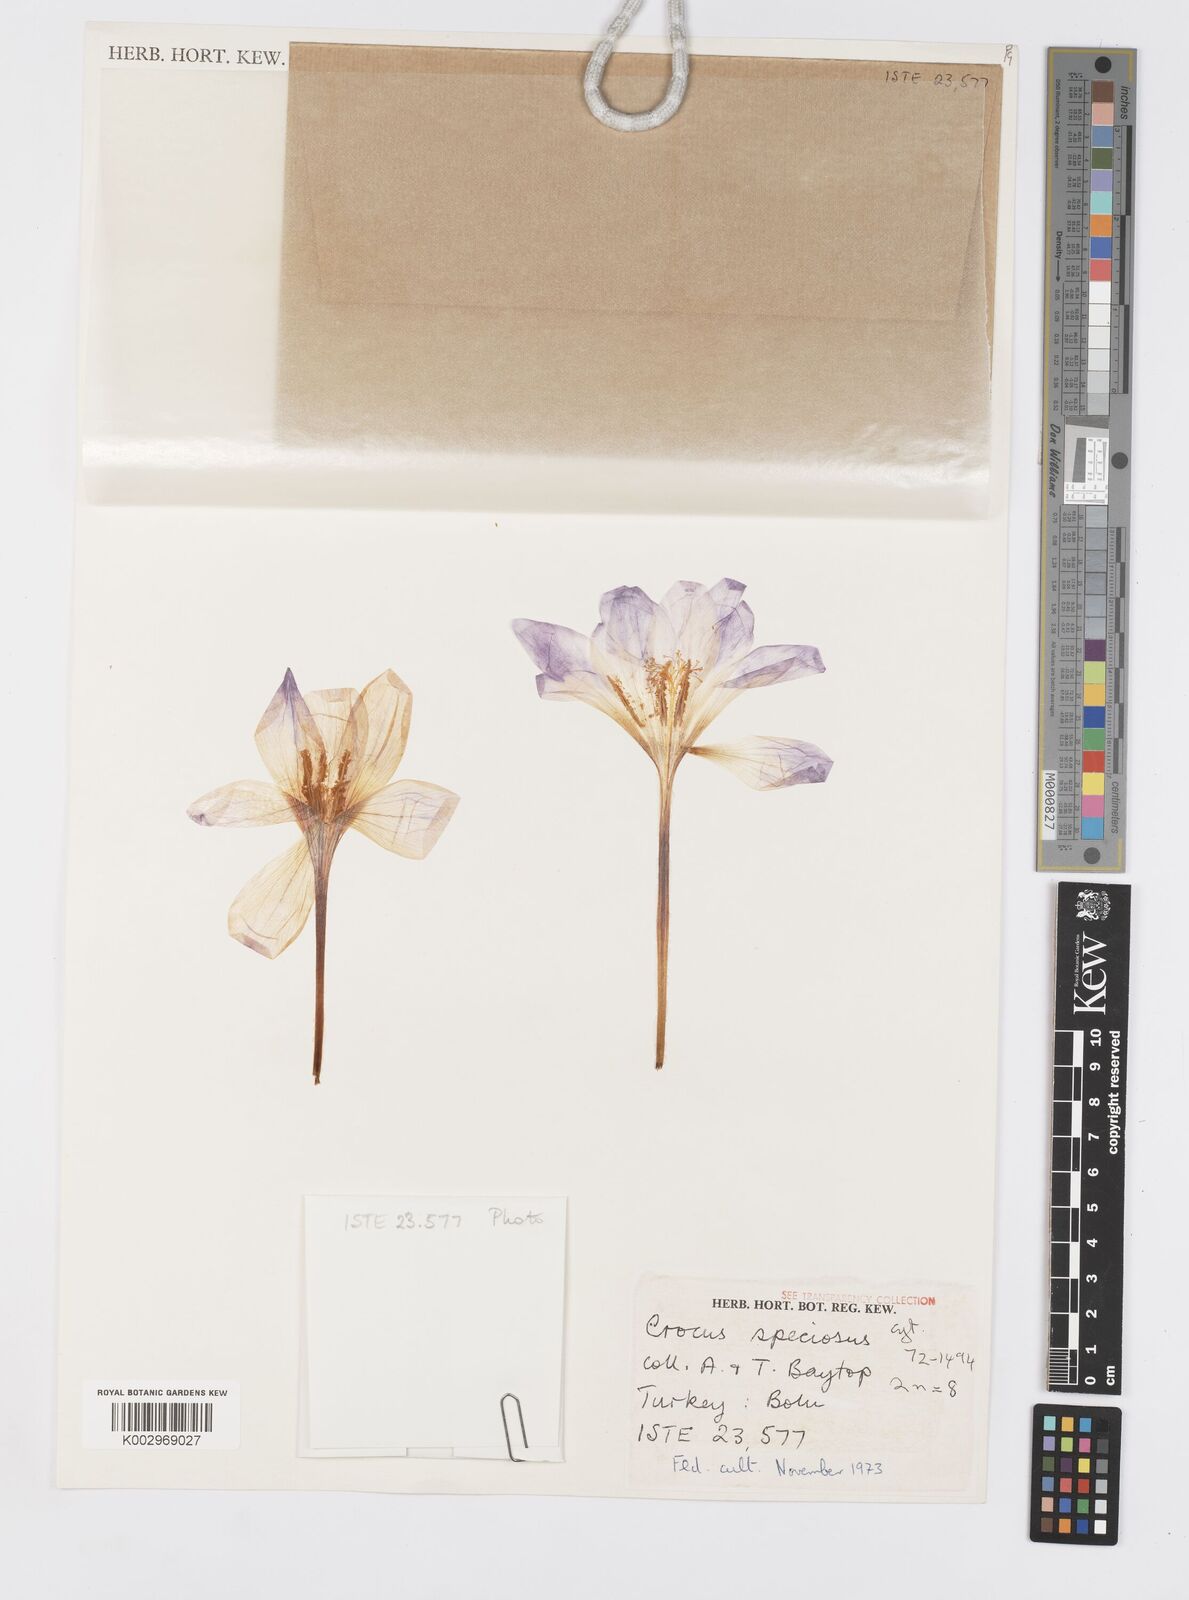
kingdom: Plantae
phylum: Tracheophyta
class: Liliopsida
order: Asparagales
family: Iridaceae
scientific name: Iridaceae
